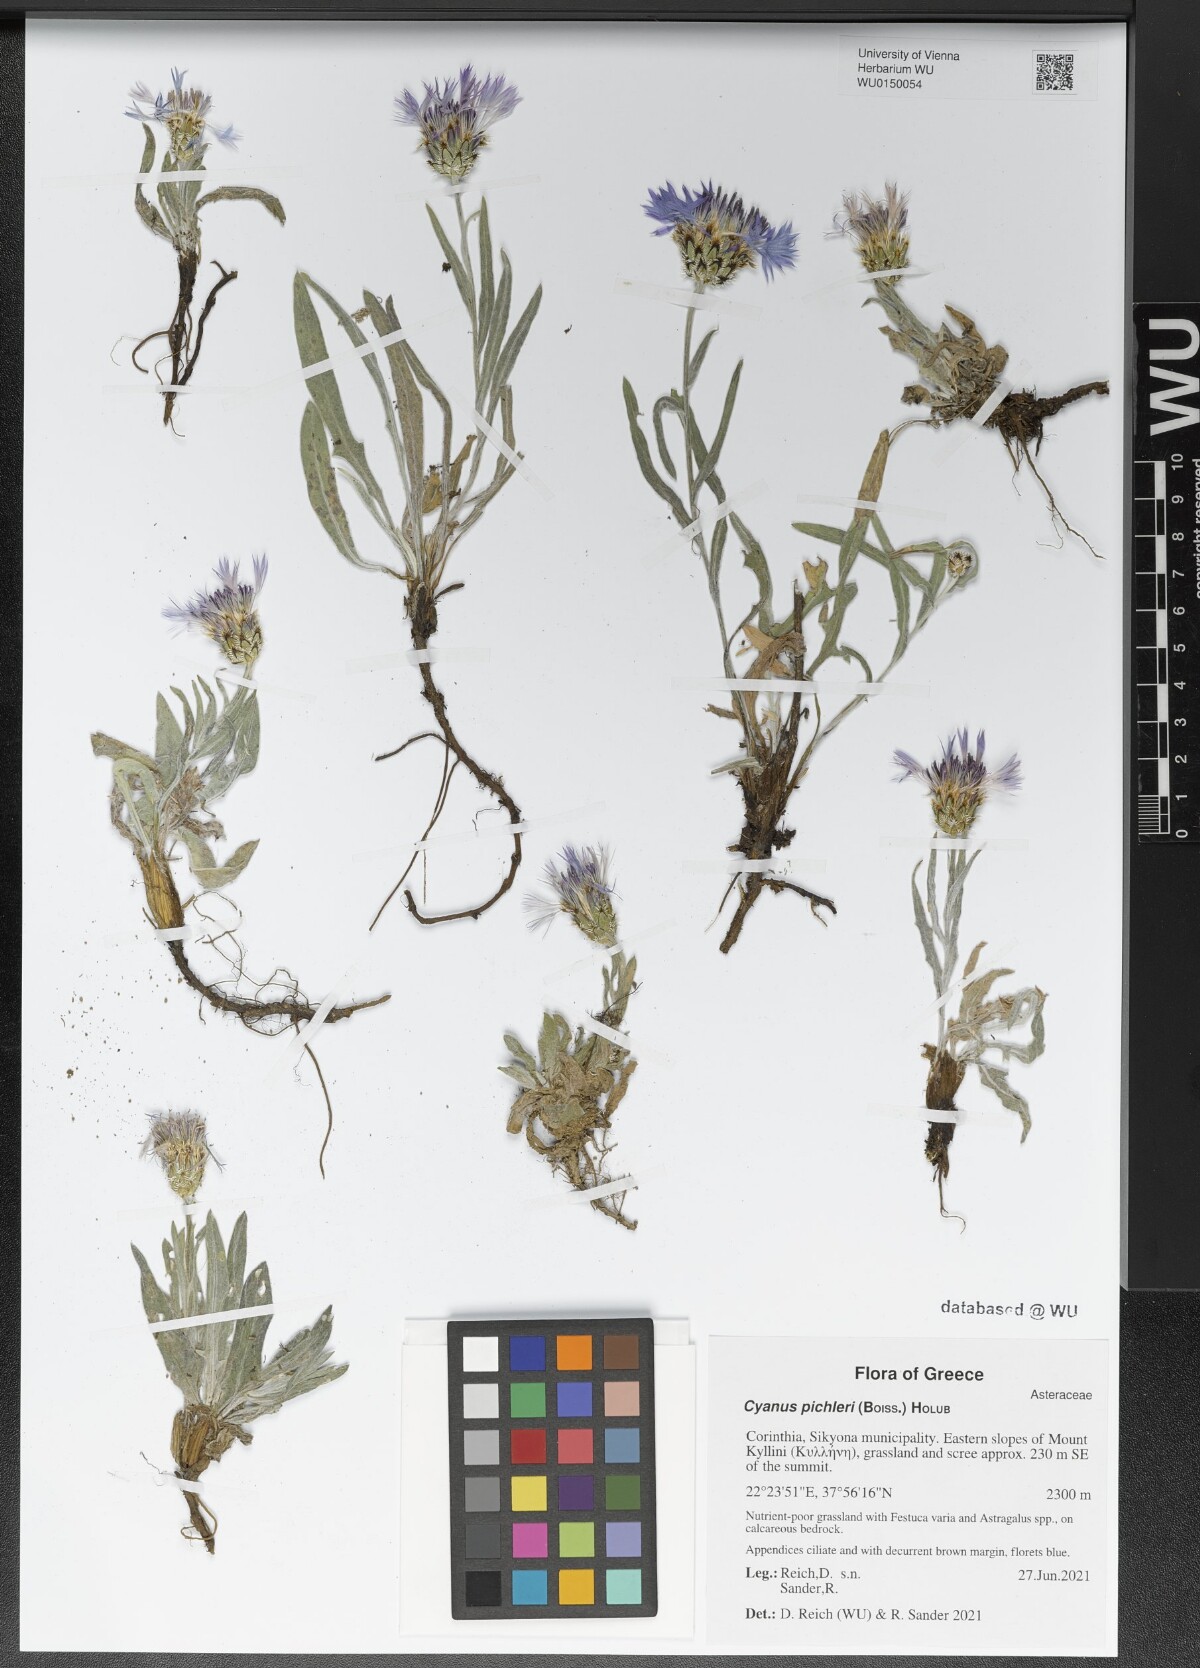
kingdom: Plantae
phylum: Tracheophyta
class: Magnoliopsida
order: Asterales
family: Asteraceae
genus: Centaurea
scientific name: Centaurea pichleri
